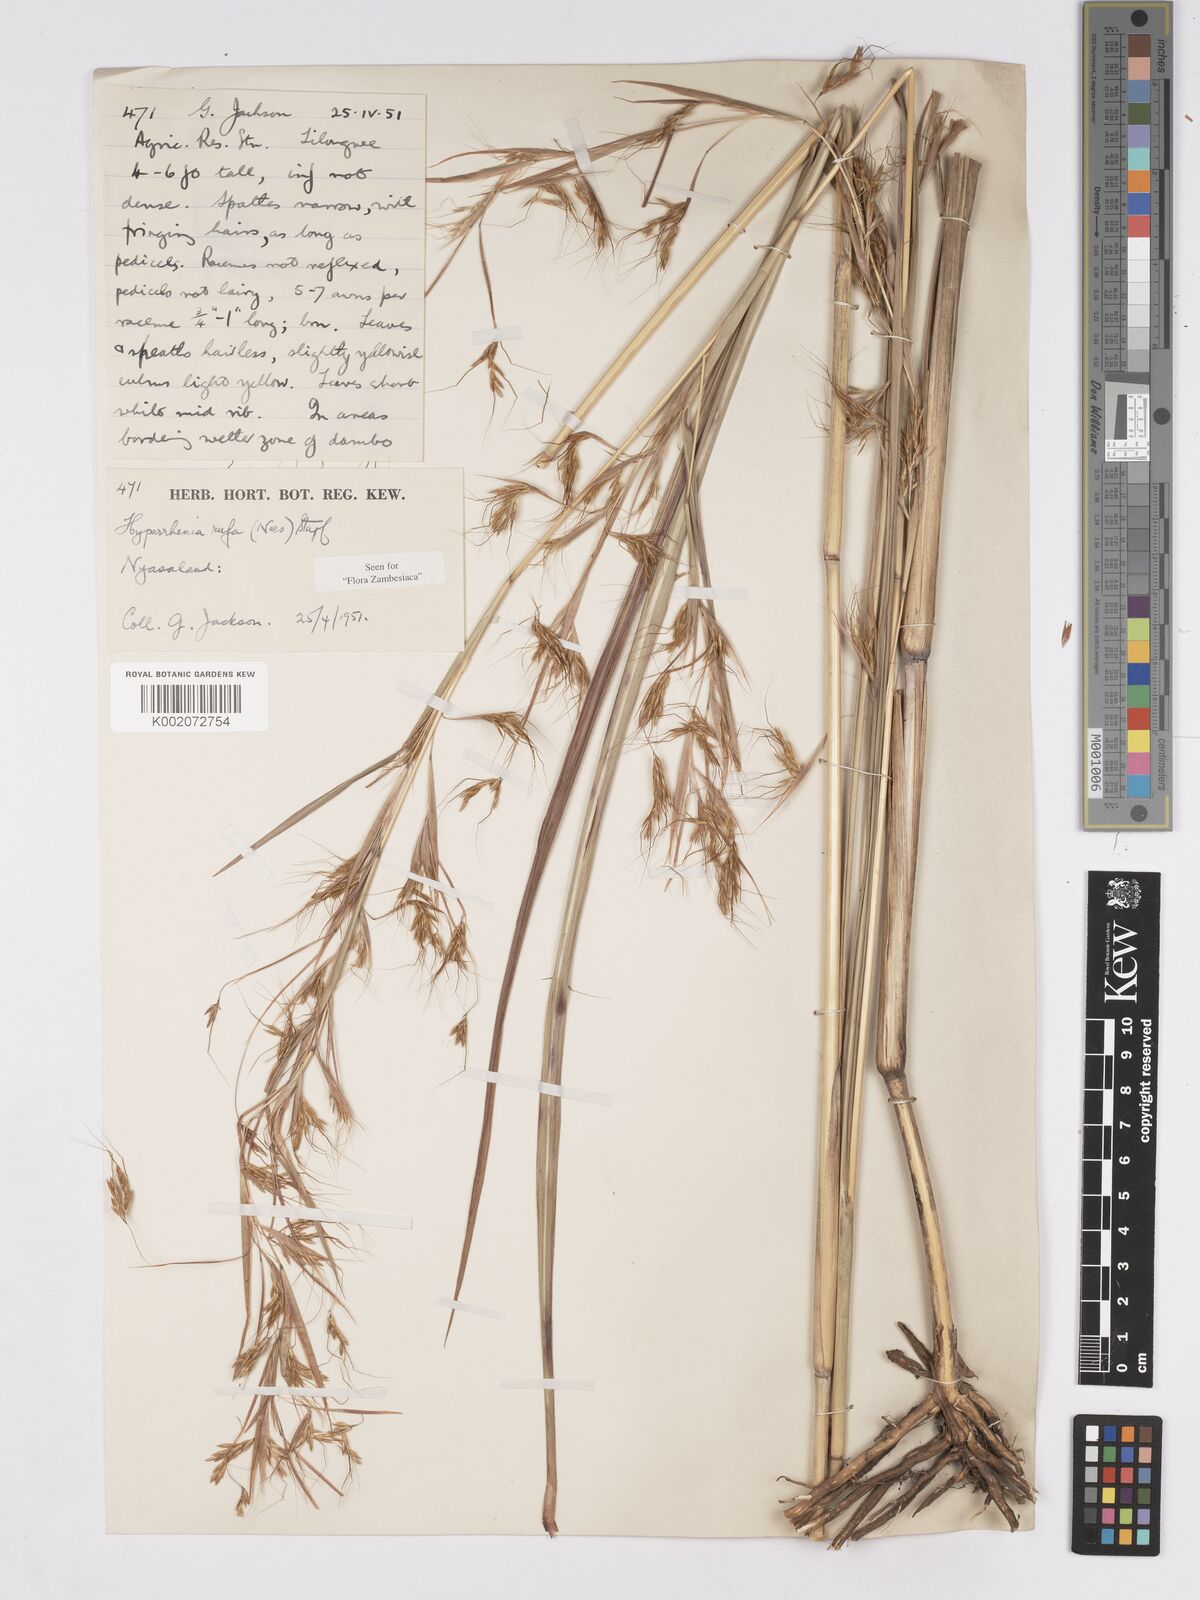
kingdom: Plantae
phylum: Tracheophyta
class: Liliopsida
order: Poales
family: Poaceae
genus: Hyparrhenia
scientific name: Hyparrhenia rufa
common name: Jaraguagrass
